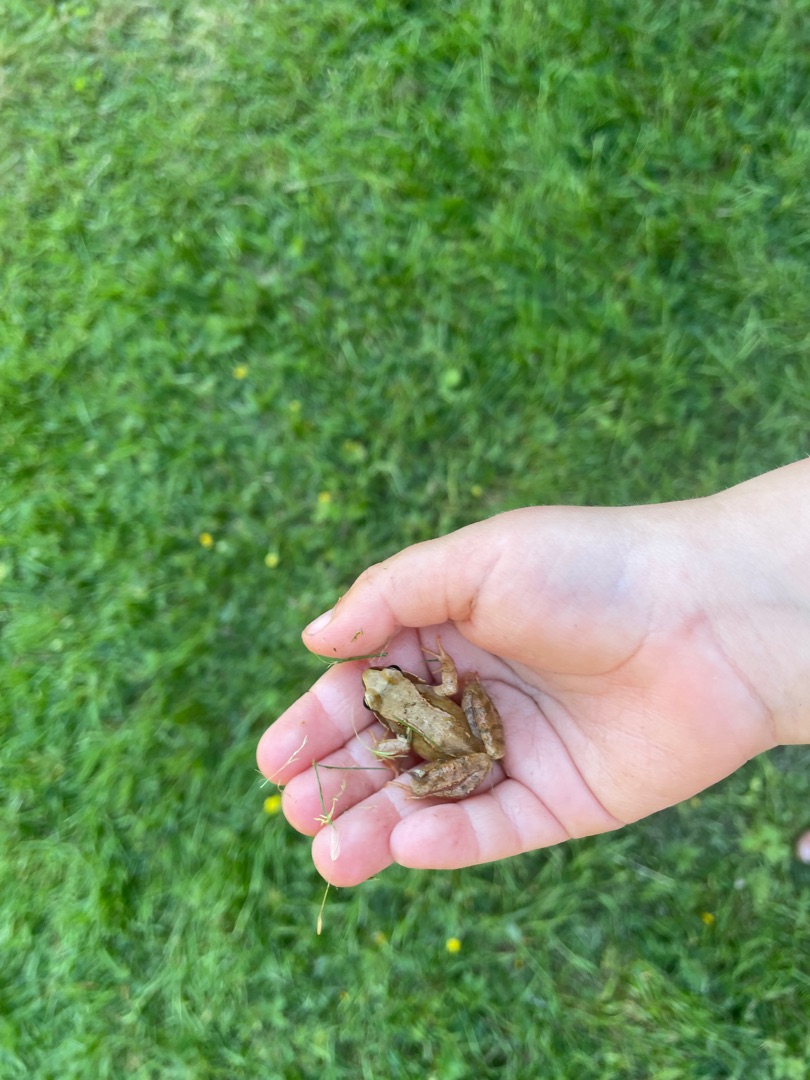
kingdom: Animalia
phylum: Chordata
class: Amphibia
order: Anura
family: Ranidae
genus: Rana
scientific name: Rana temporaria
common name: Butsnudet frø
